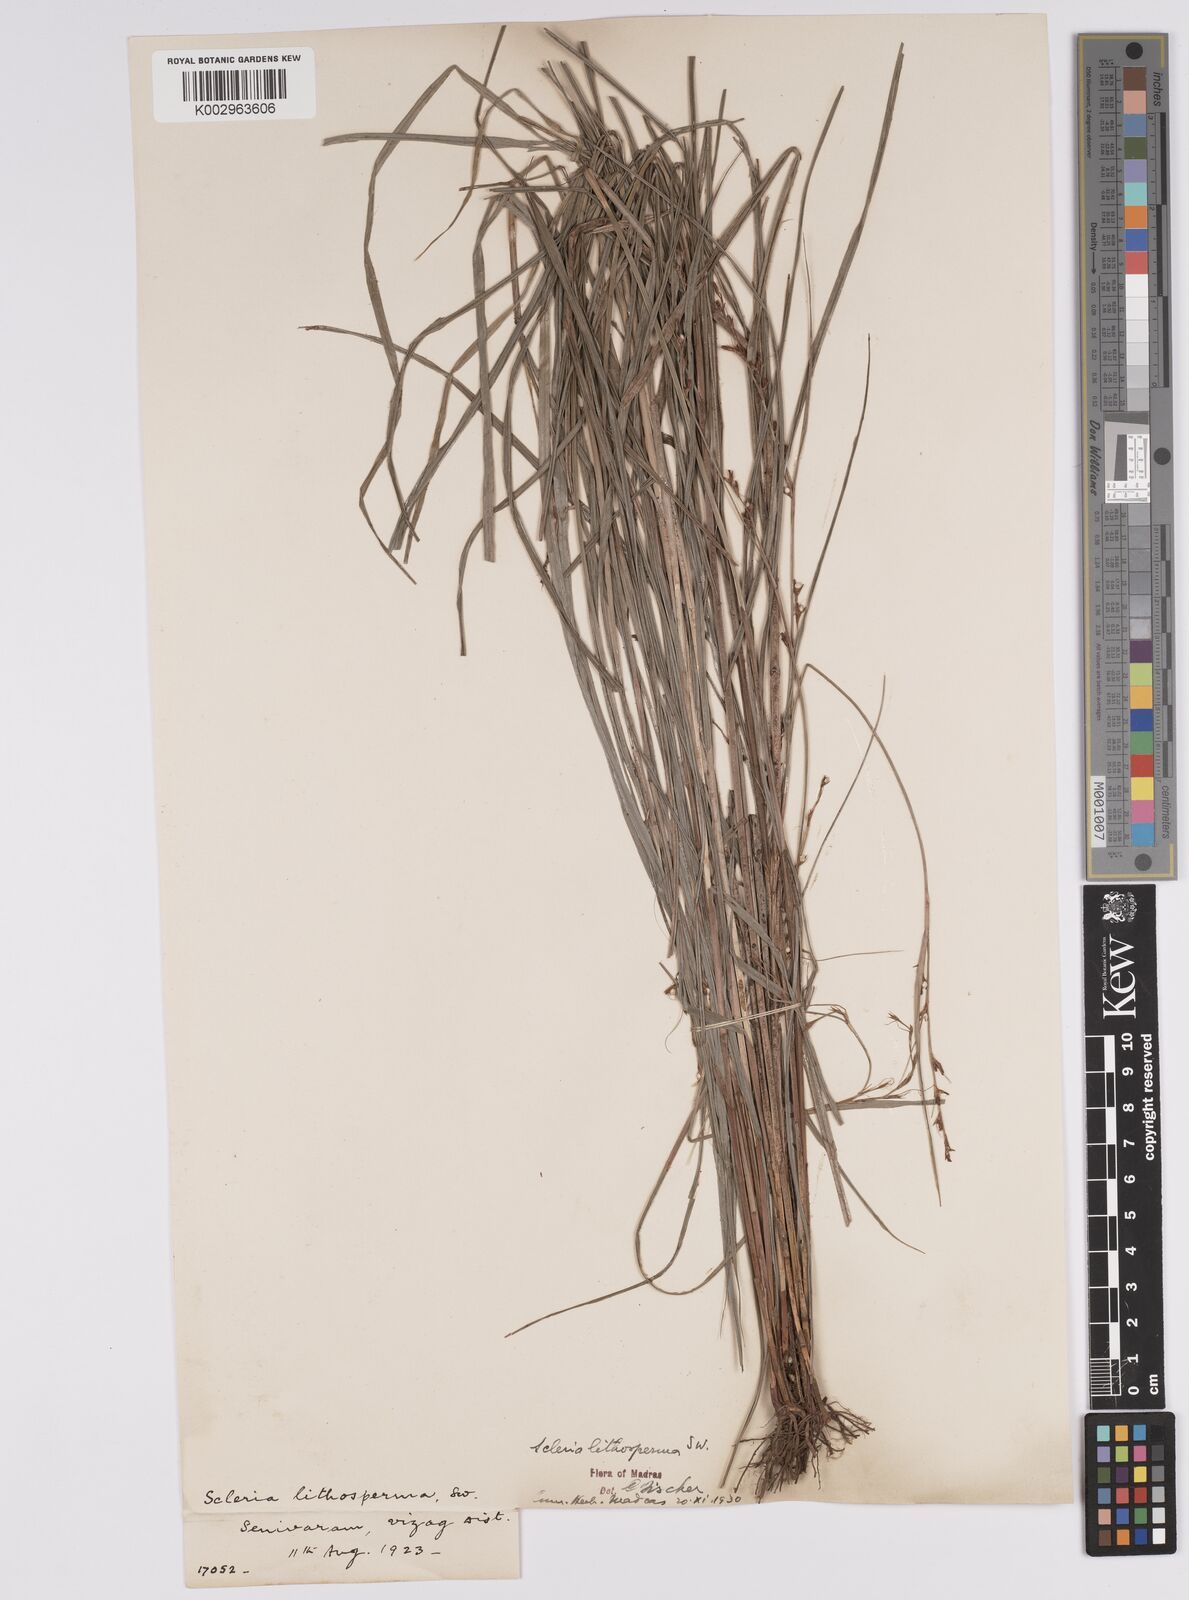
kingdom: Plantae
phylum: Tracheophyta
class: Liliopsida
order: Poales
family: Cyperaceae
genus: Scleria
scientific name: Scleria lithosperma
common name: Florida keys nut-rush
